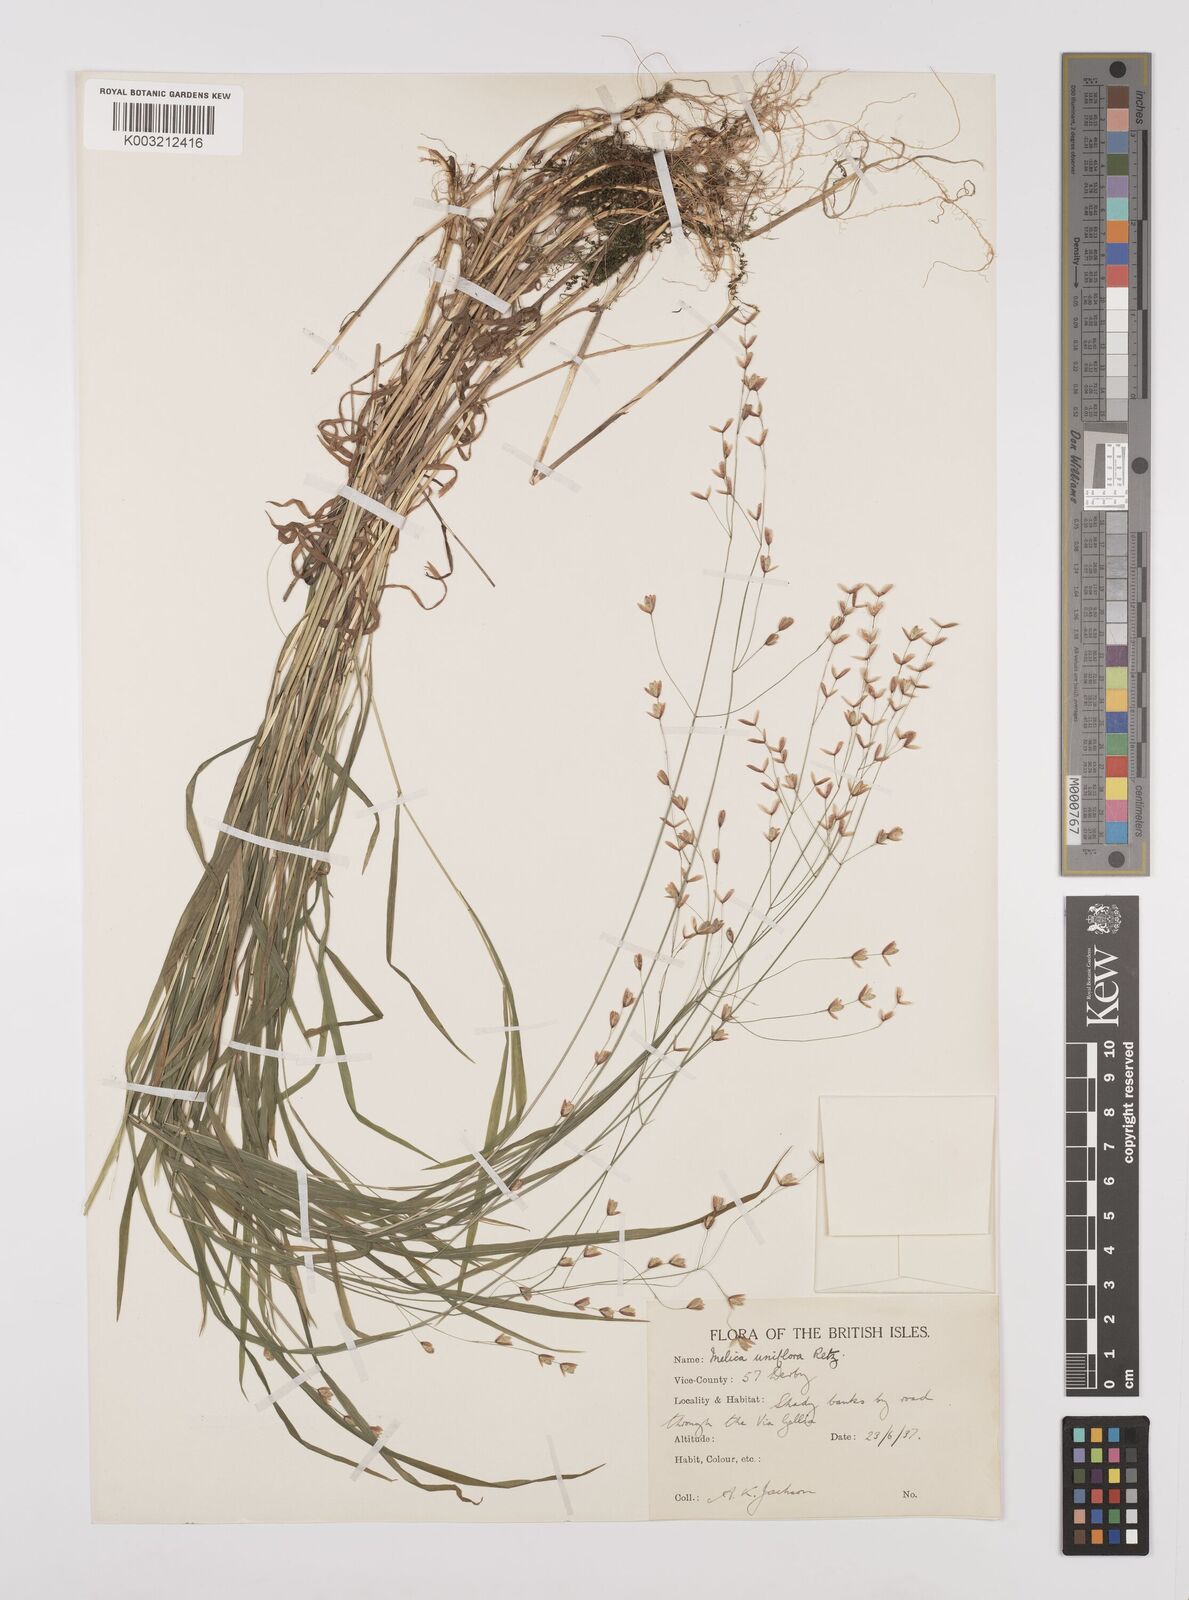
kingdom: Plantae
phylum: Tracheophyta
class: Liliopsida
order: Poales
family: Poaceae
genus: Melica
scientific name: Melica uniflora
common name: Wood melick
